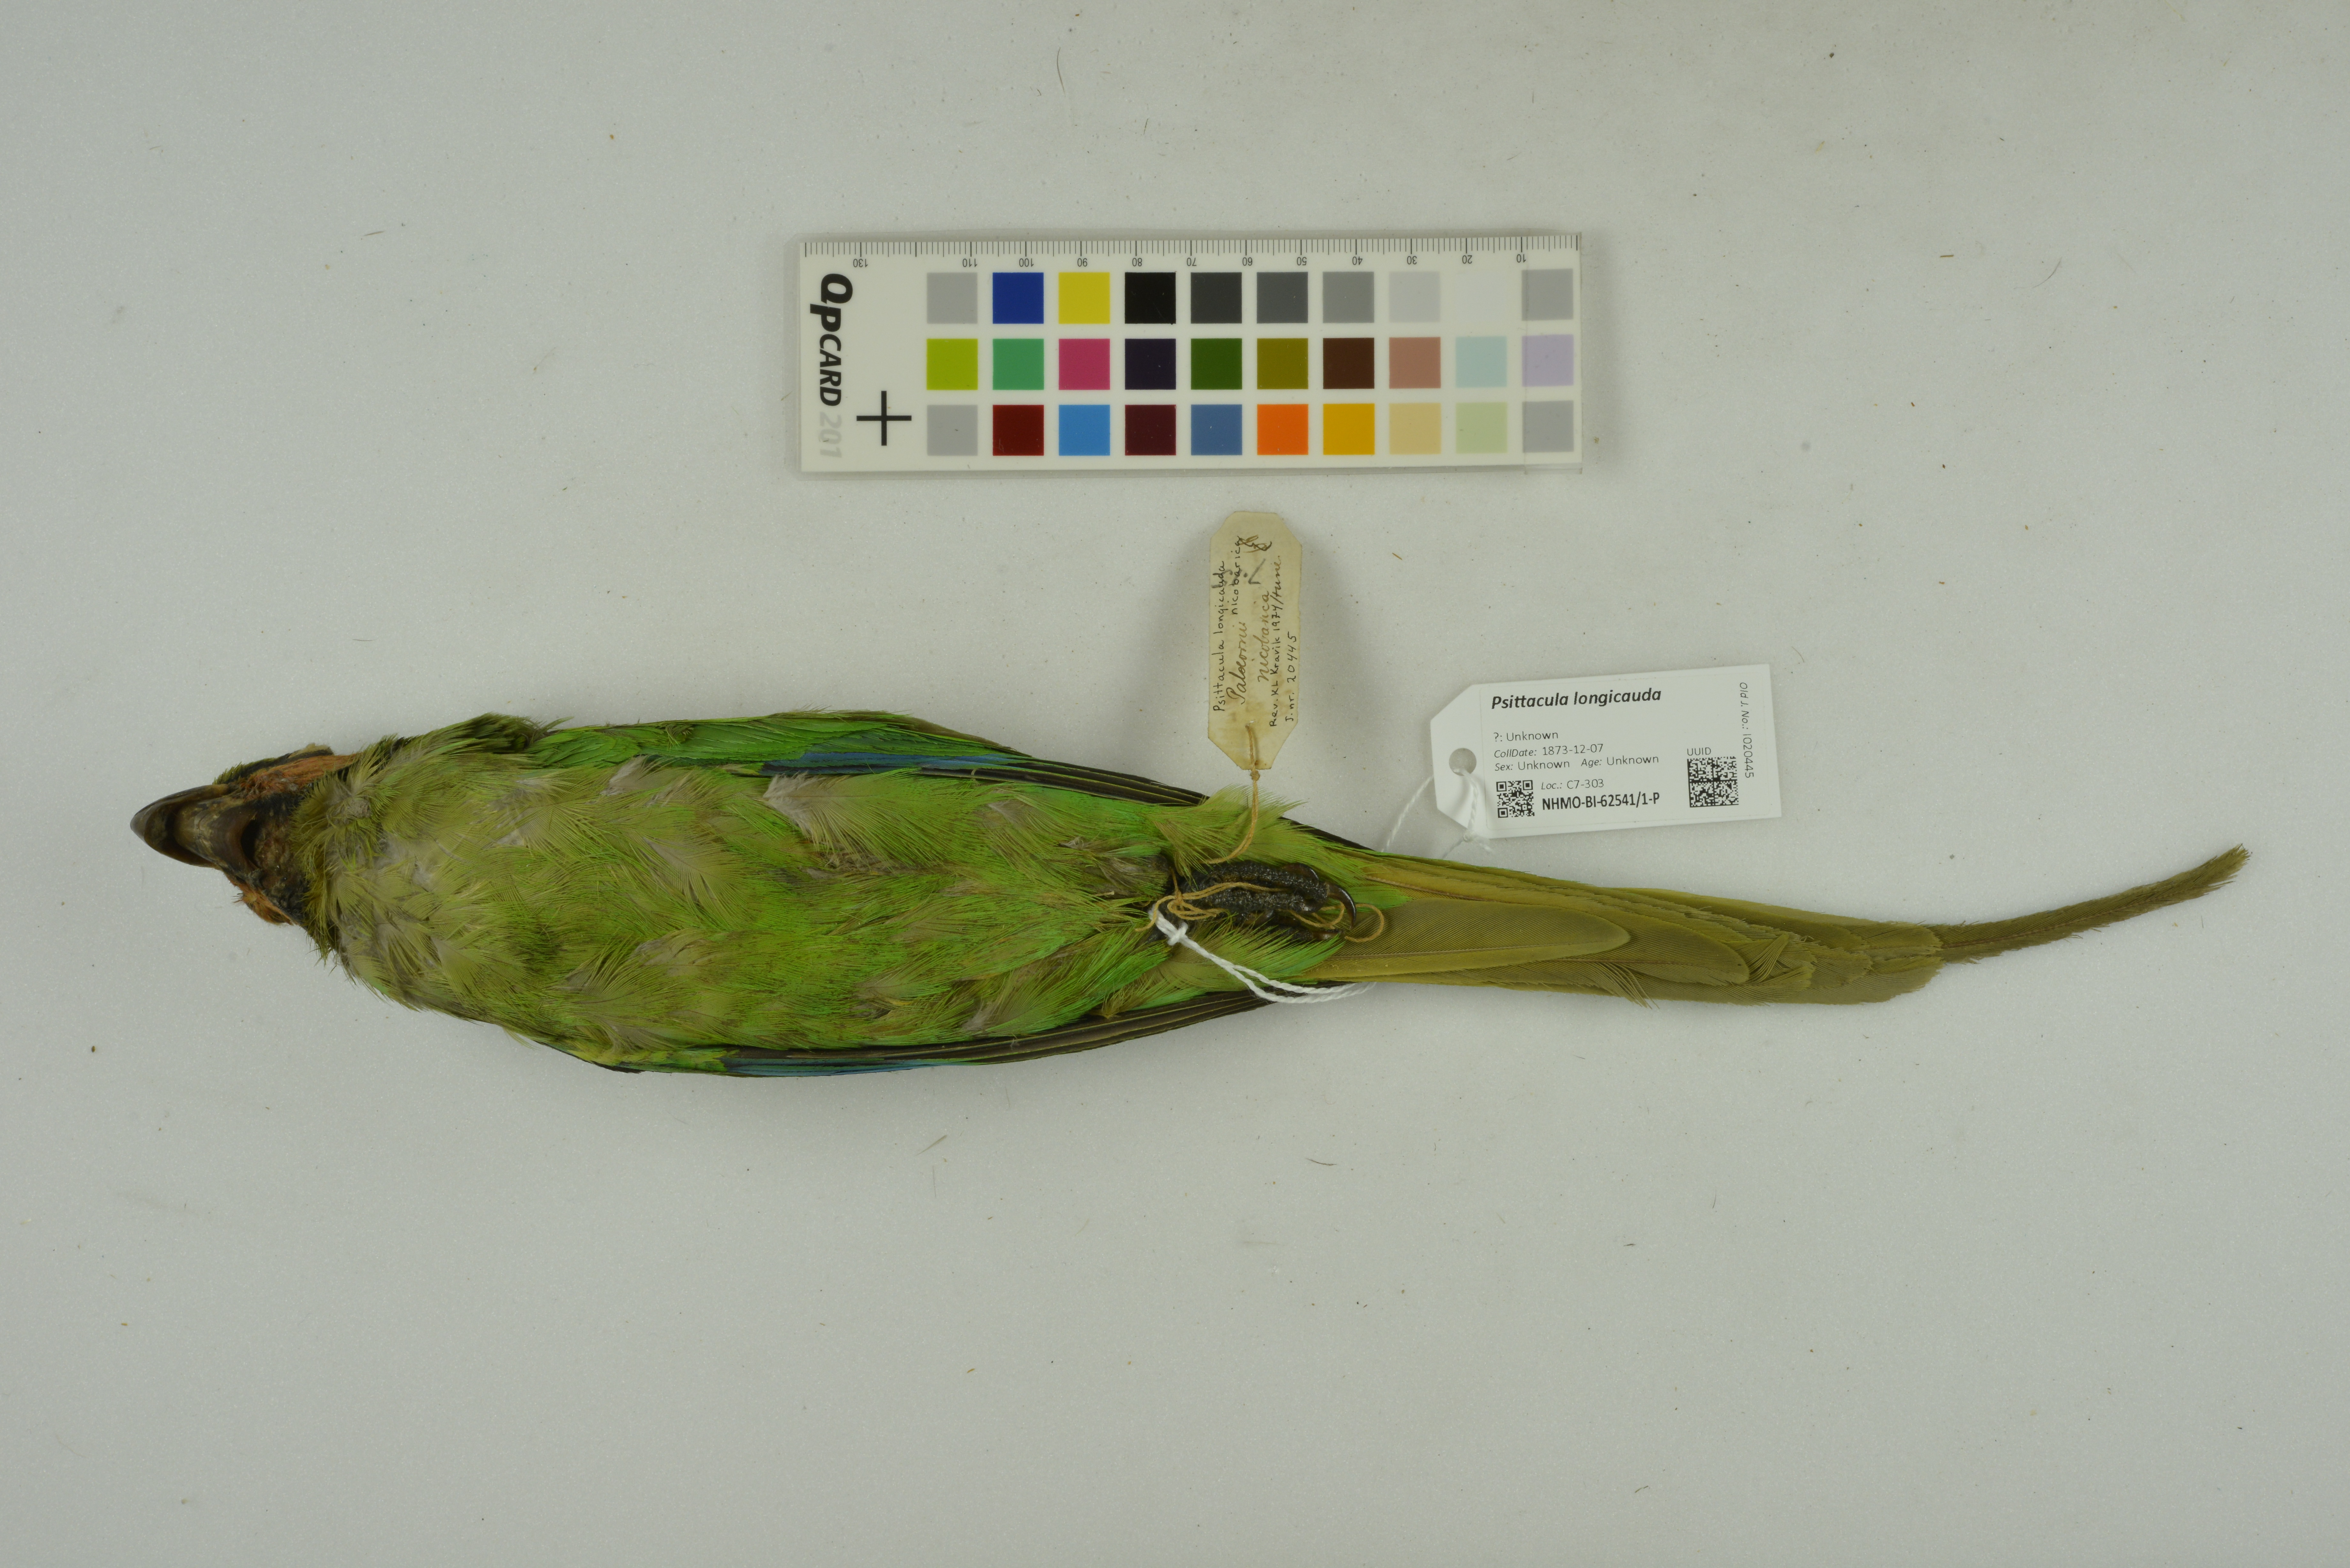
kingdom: Animalia
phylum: Chordata
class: Aves
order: Psittaciformes
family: Psittacidae
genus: Psittacula
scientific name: Psittacula longicauda
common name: Long-tailed parakeet
